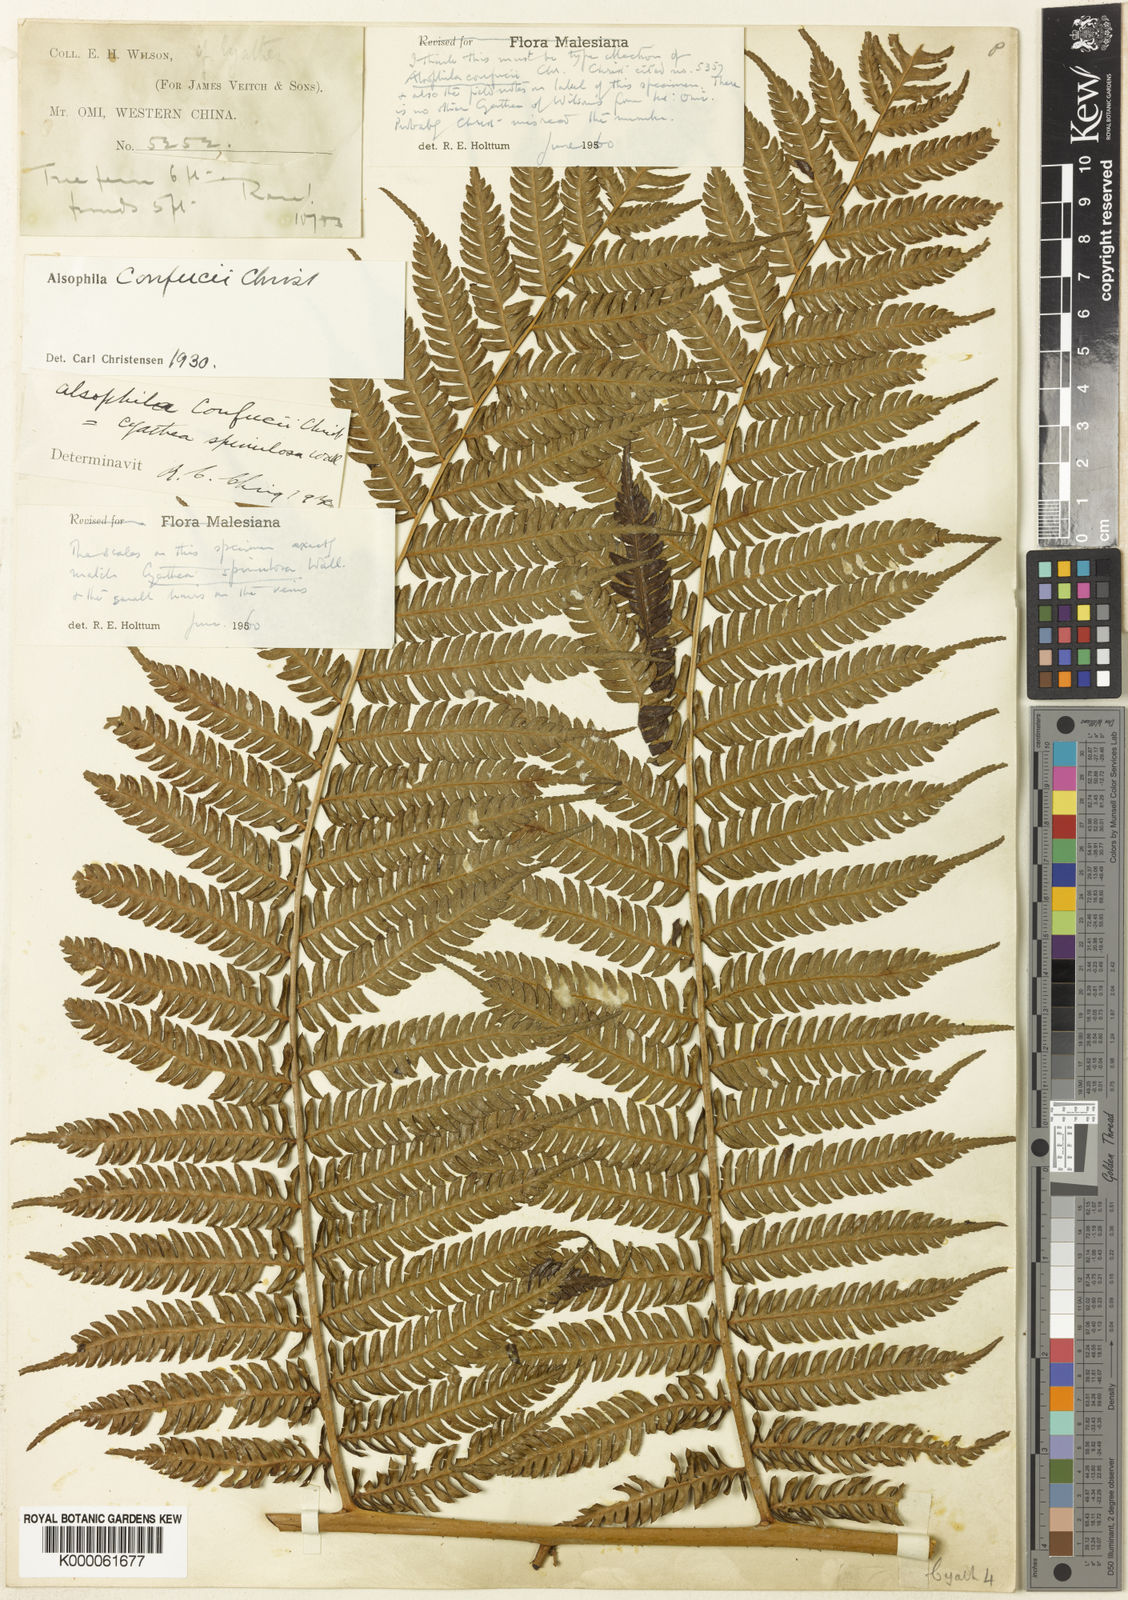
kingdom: Plantae
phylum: Tracheophyta
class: Polypodiopsida
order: Cyatheales
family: Cyatheaceae
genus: Cyathea
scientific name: Cyathea
